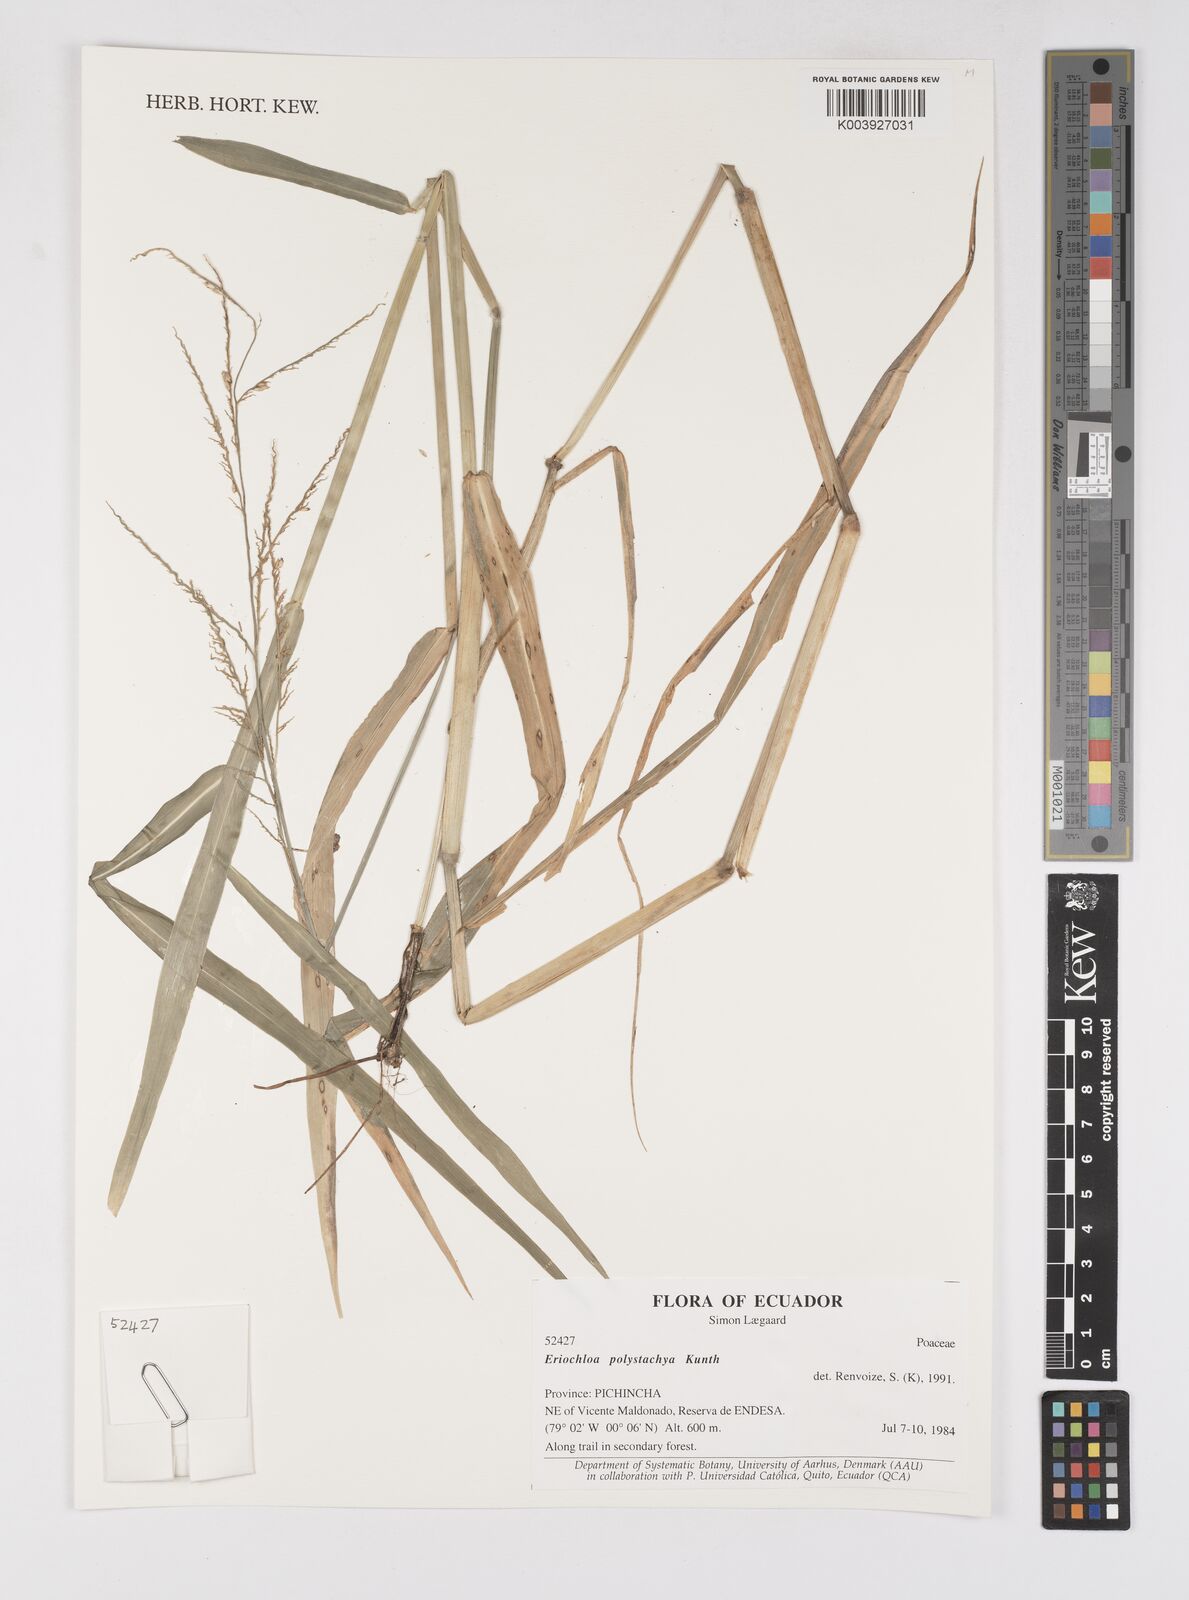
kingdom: Plantae
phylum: Tracheophyta
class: Liliopsida
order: Poales
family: Poaceae
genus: Urochloa
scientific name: Urochloa polystachya
